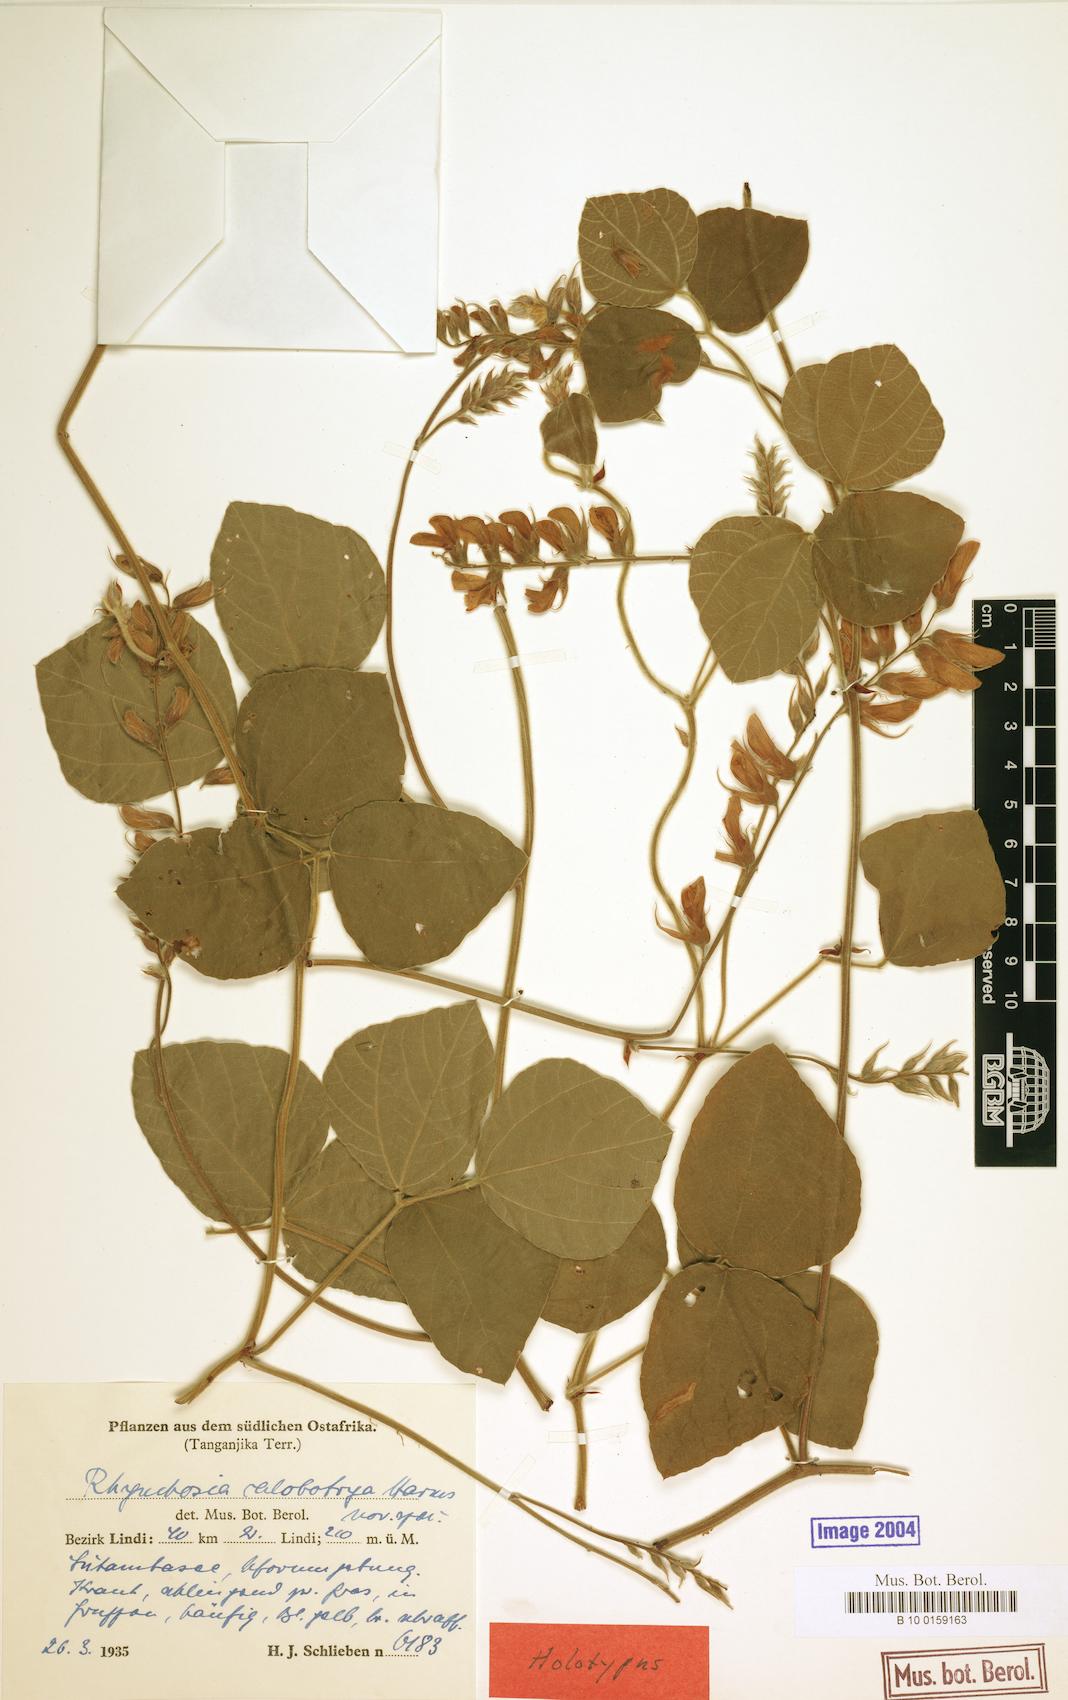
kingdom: Plantae
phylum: Tracheophyta
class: Magnoliopsida
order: Fabales
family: Fabaceae
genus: Rhynchosia
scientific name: Rhynchosia calobotrya
